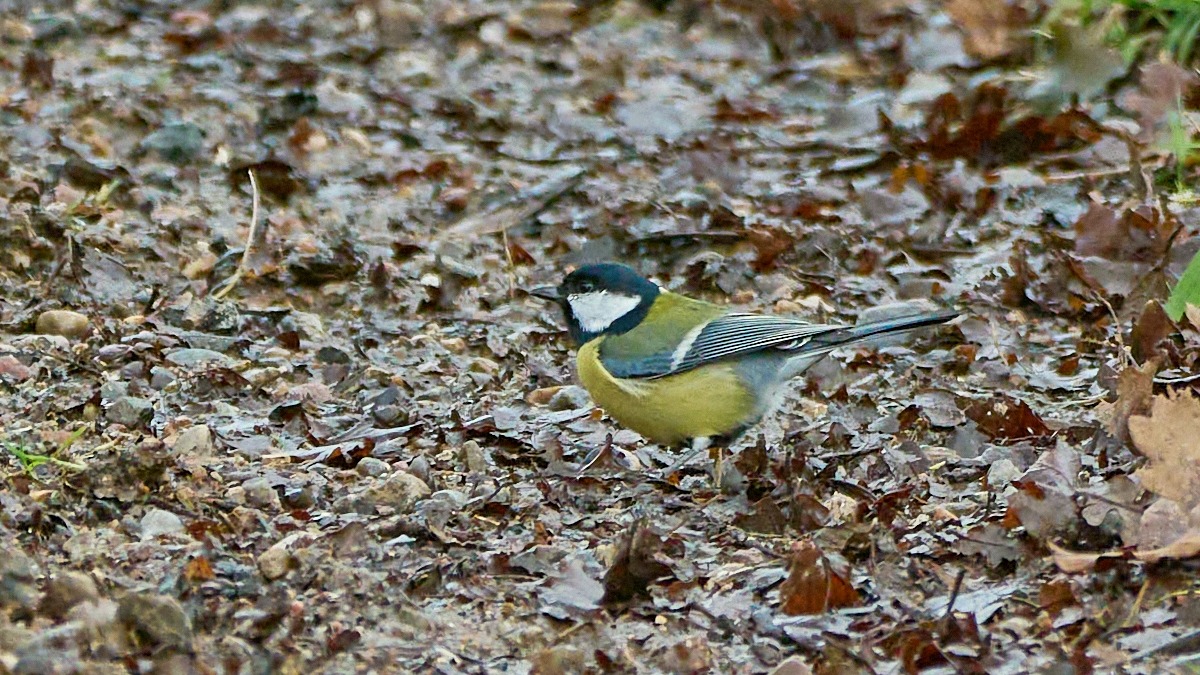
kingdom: Animalia
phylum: Chordata
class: Aves
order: Passeriformes
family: Paridae
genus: Parus
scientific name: Parus major
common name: Musvit
